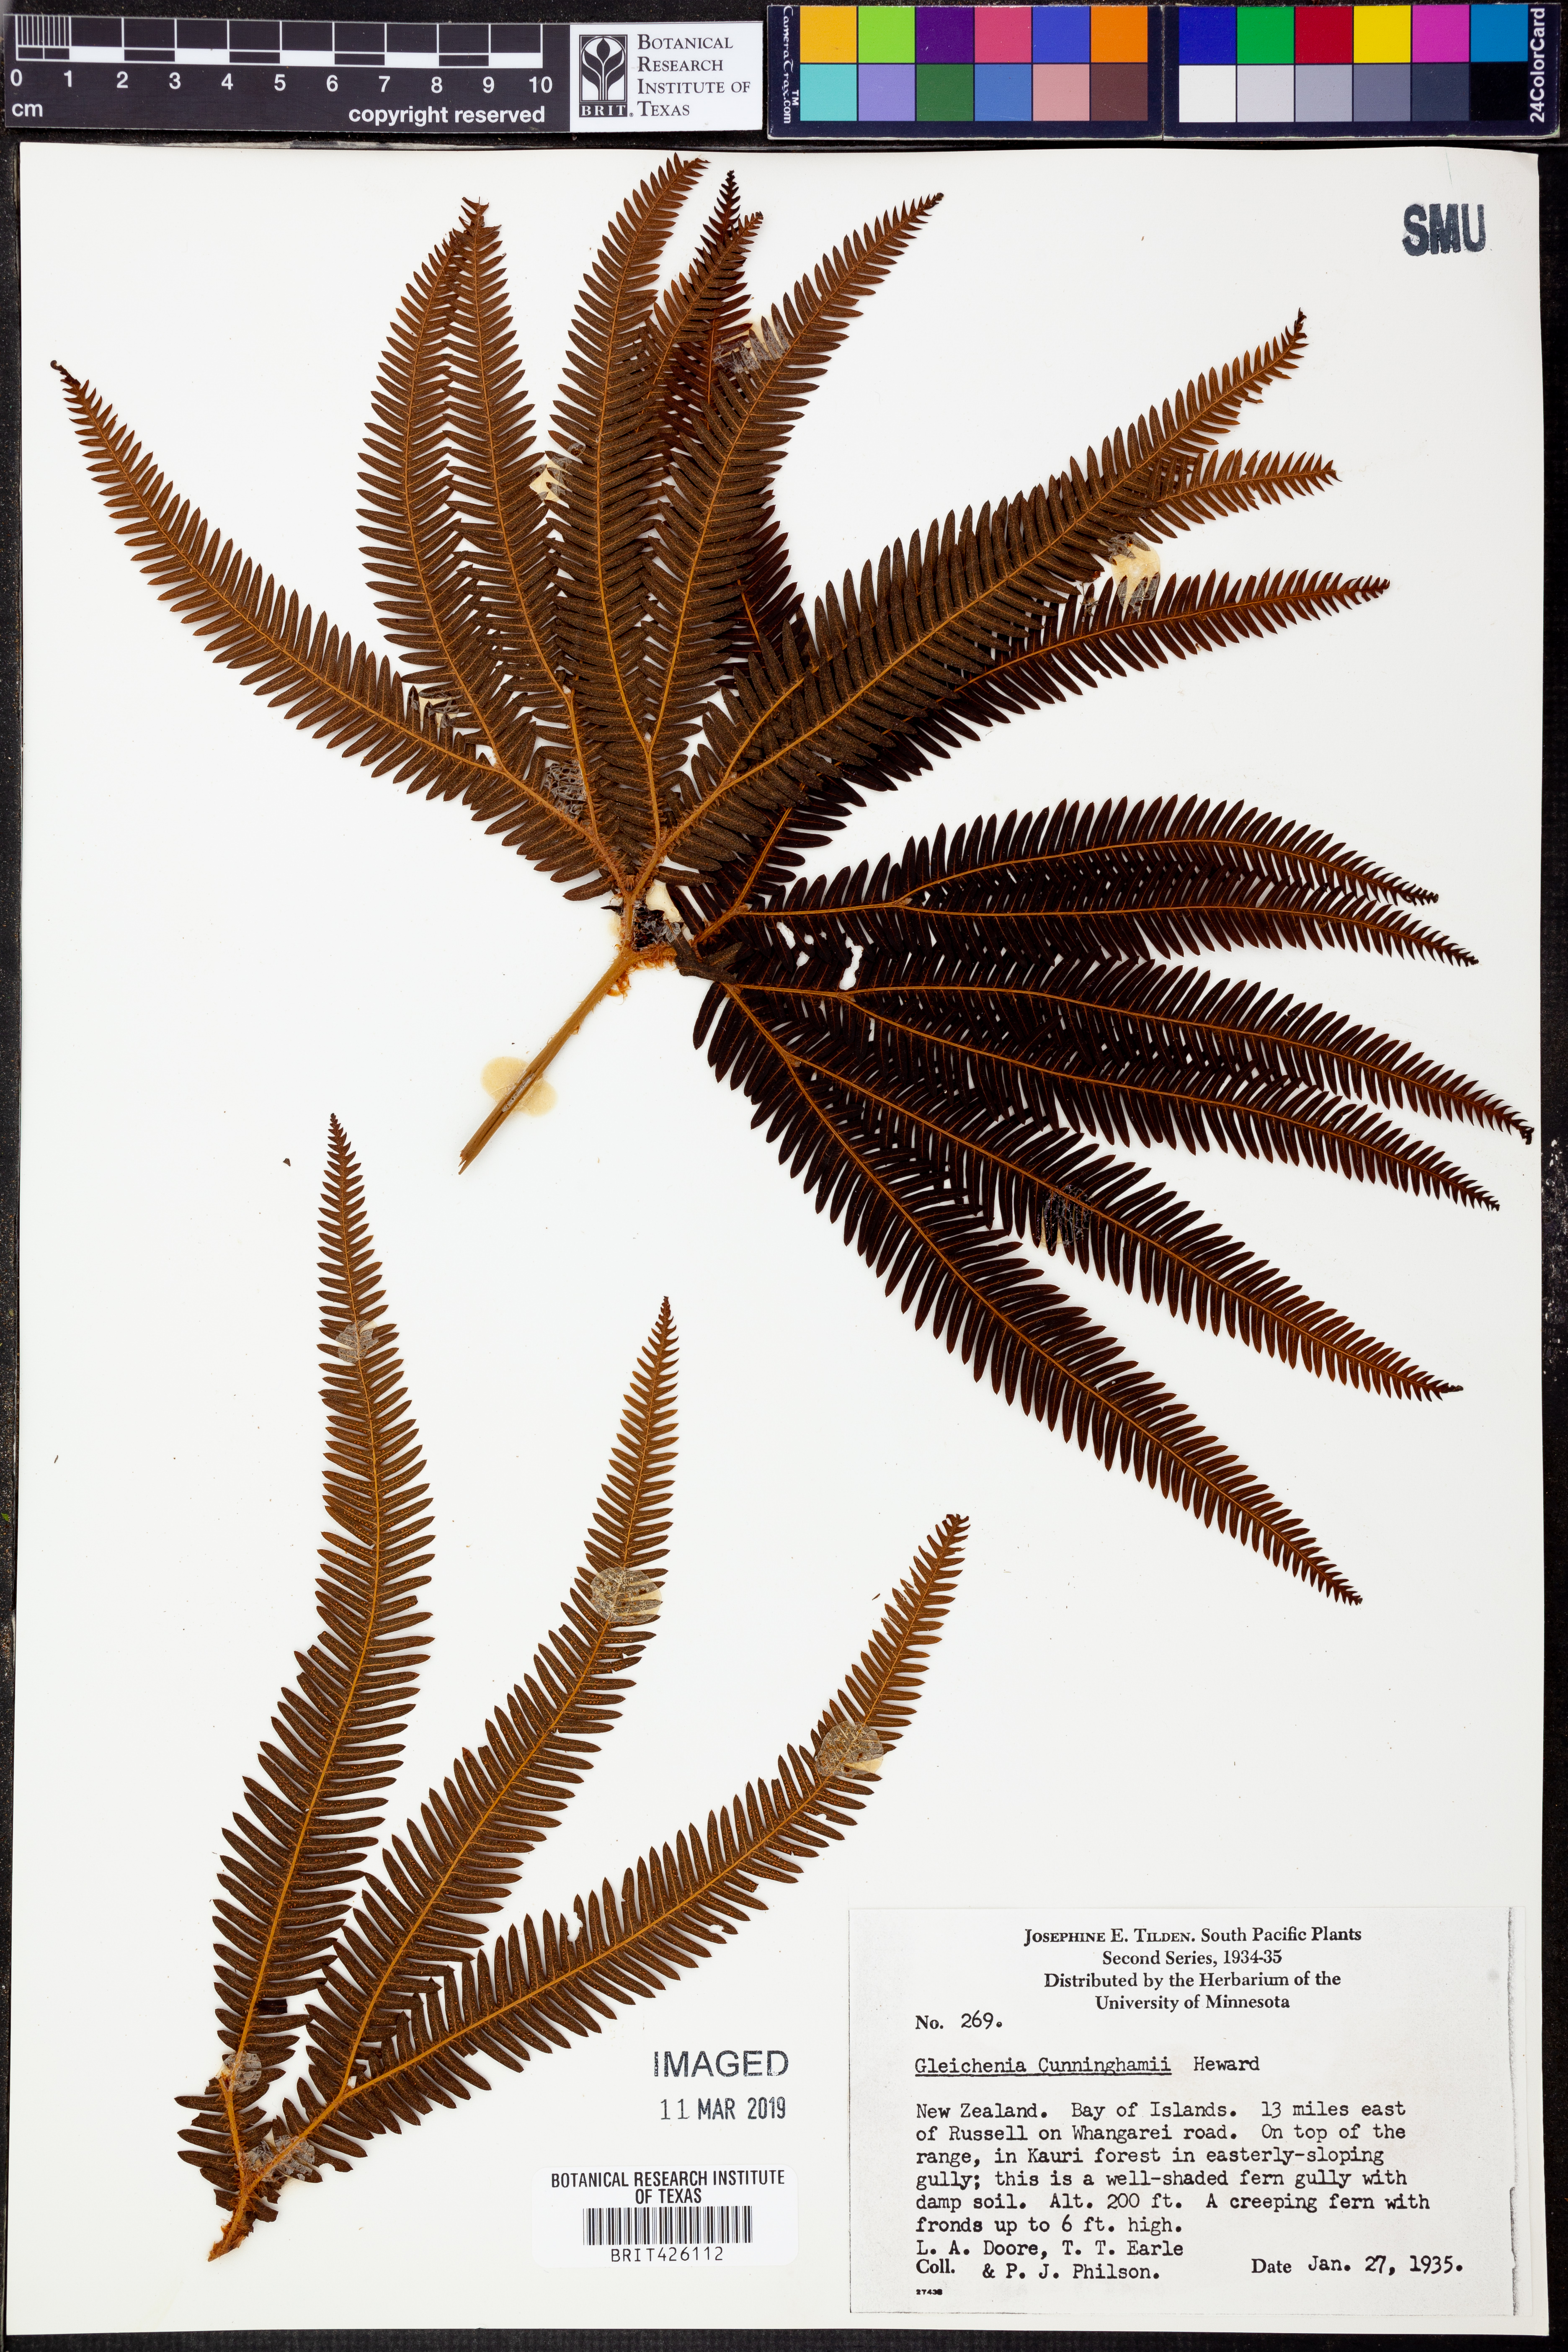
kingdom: Plantae
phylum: Tracheophyta
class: Polypodiopsida
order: Gleicheniales
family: Gleicheniaceae
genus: Sticherus
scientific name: Sticherus cunninghamii
